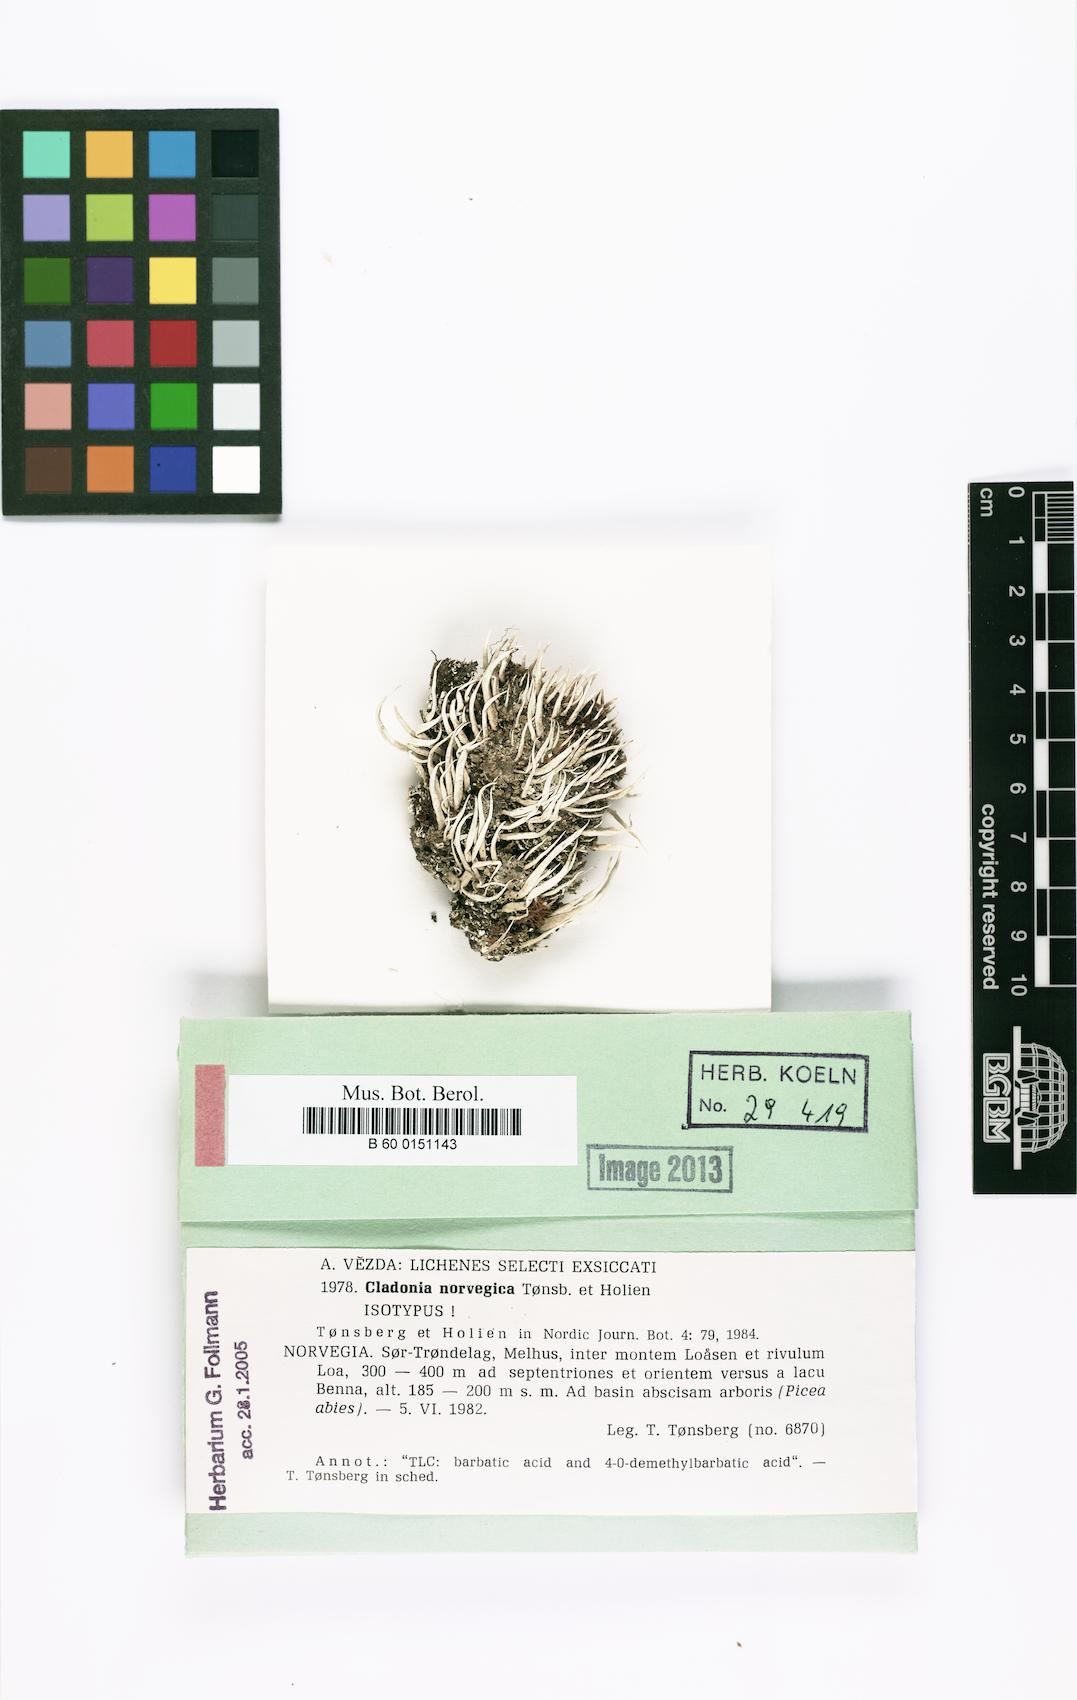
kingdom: Fungi
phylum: Ascomycota
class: Lecanoromycetes
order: Lecanorales
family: Cladoniaceae
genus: Cladonia
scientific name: Cladonia norvegica
